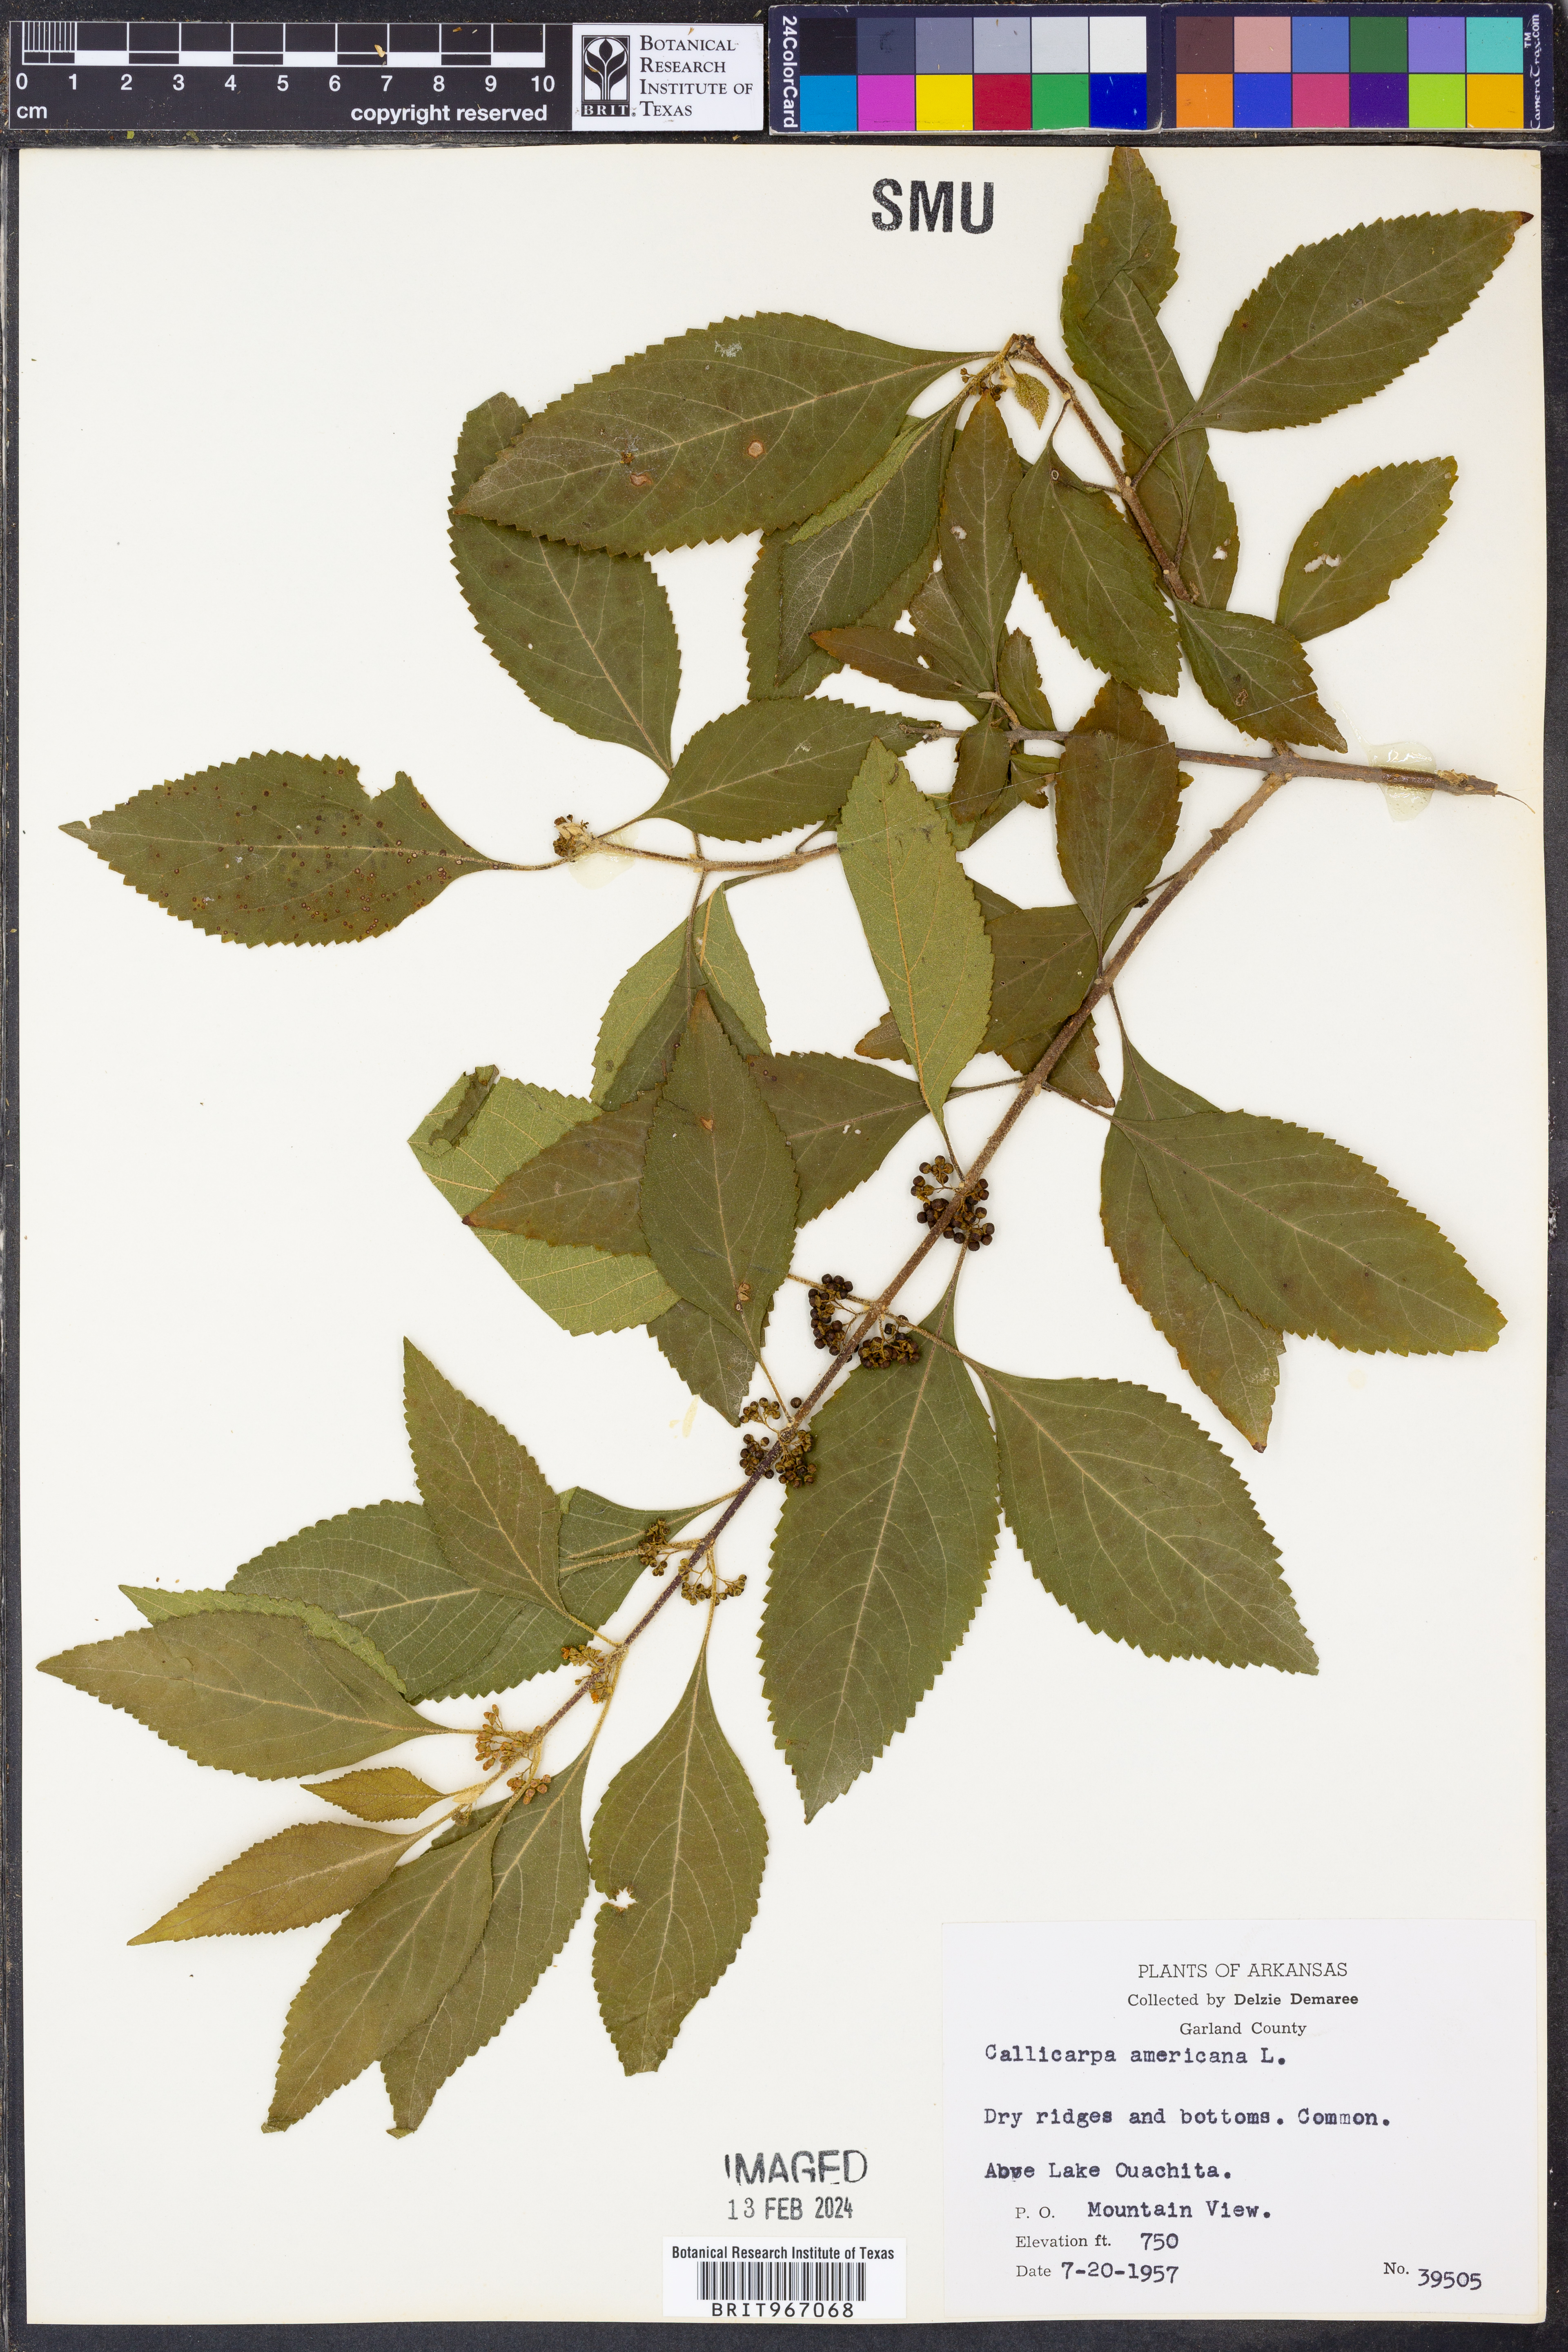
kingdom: Plantae
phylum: Tracheophyta
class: Magnoliopsida
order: Lamiales
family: Lamiaceae
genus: Callicarpa
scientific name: Callicarpa americana
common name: American beautyberry
